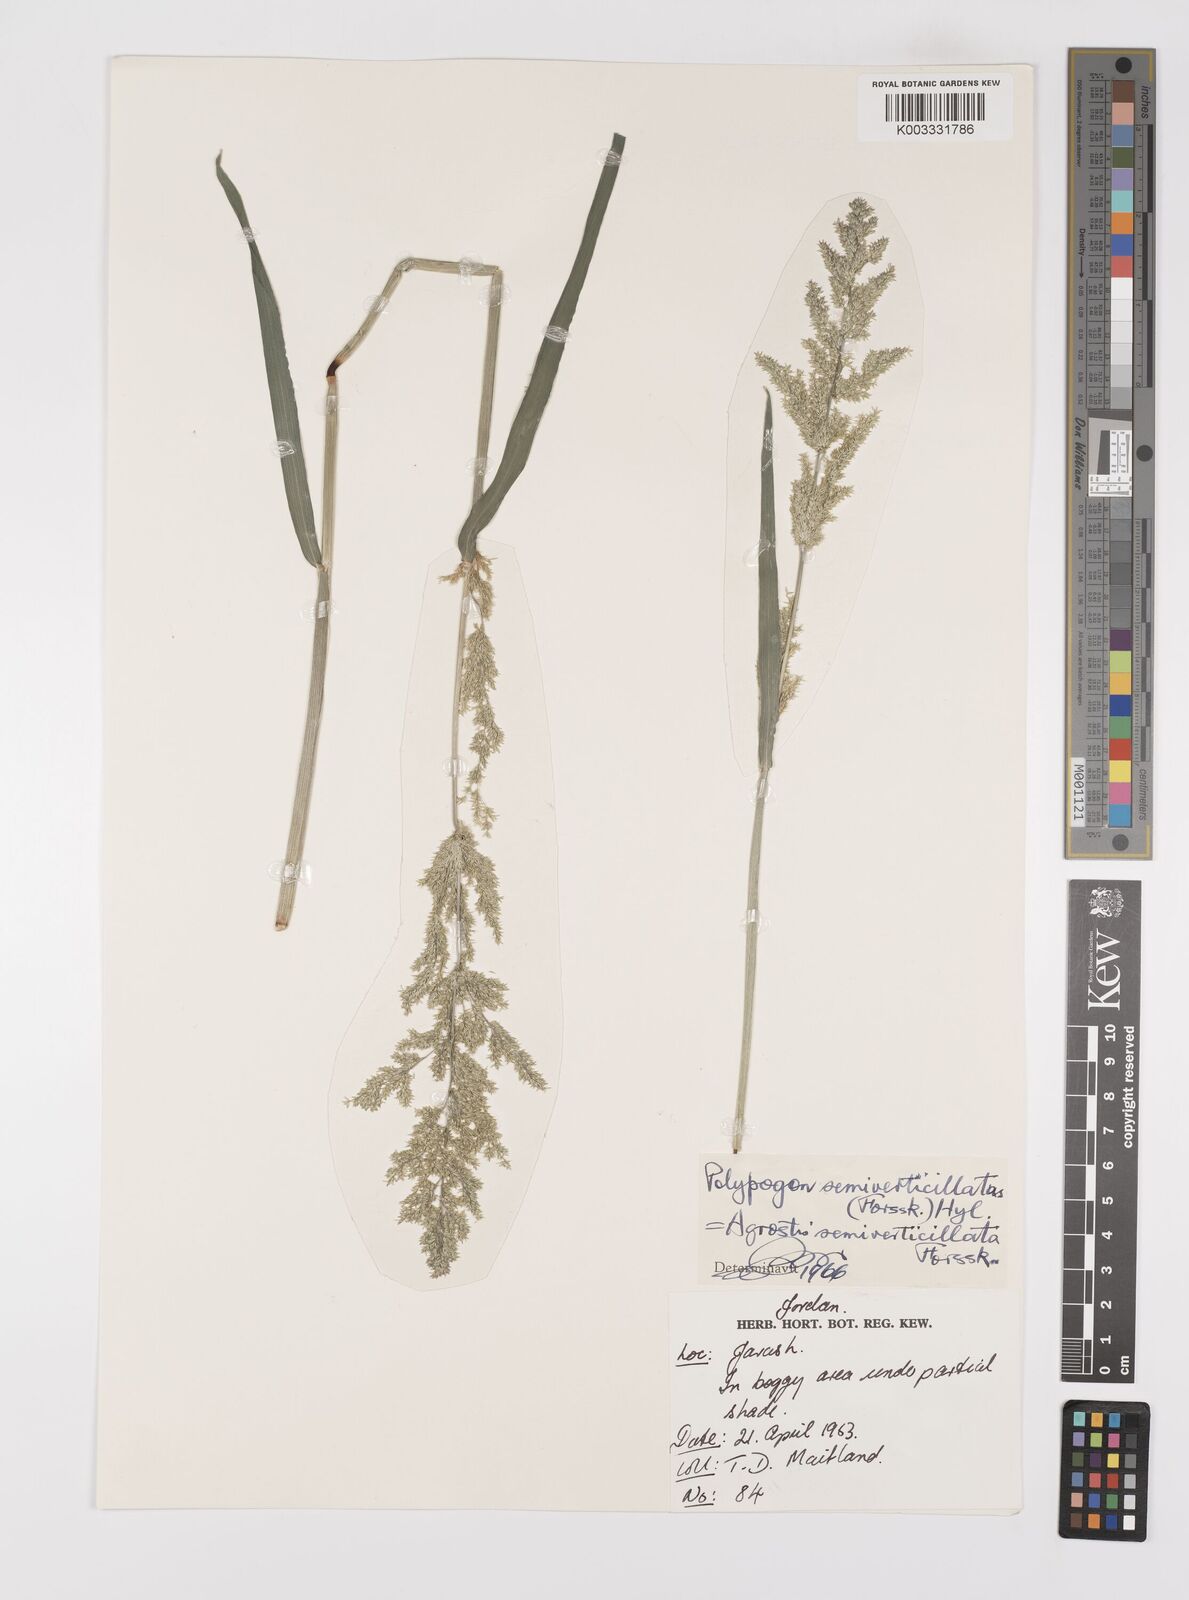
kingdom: Plantae
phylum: Tracheophyta
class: Liliopsida
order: Poales
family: Poaceae
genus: Polypogon
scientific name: Polypogon viridis
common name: Water bent
